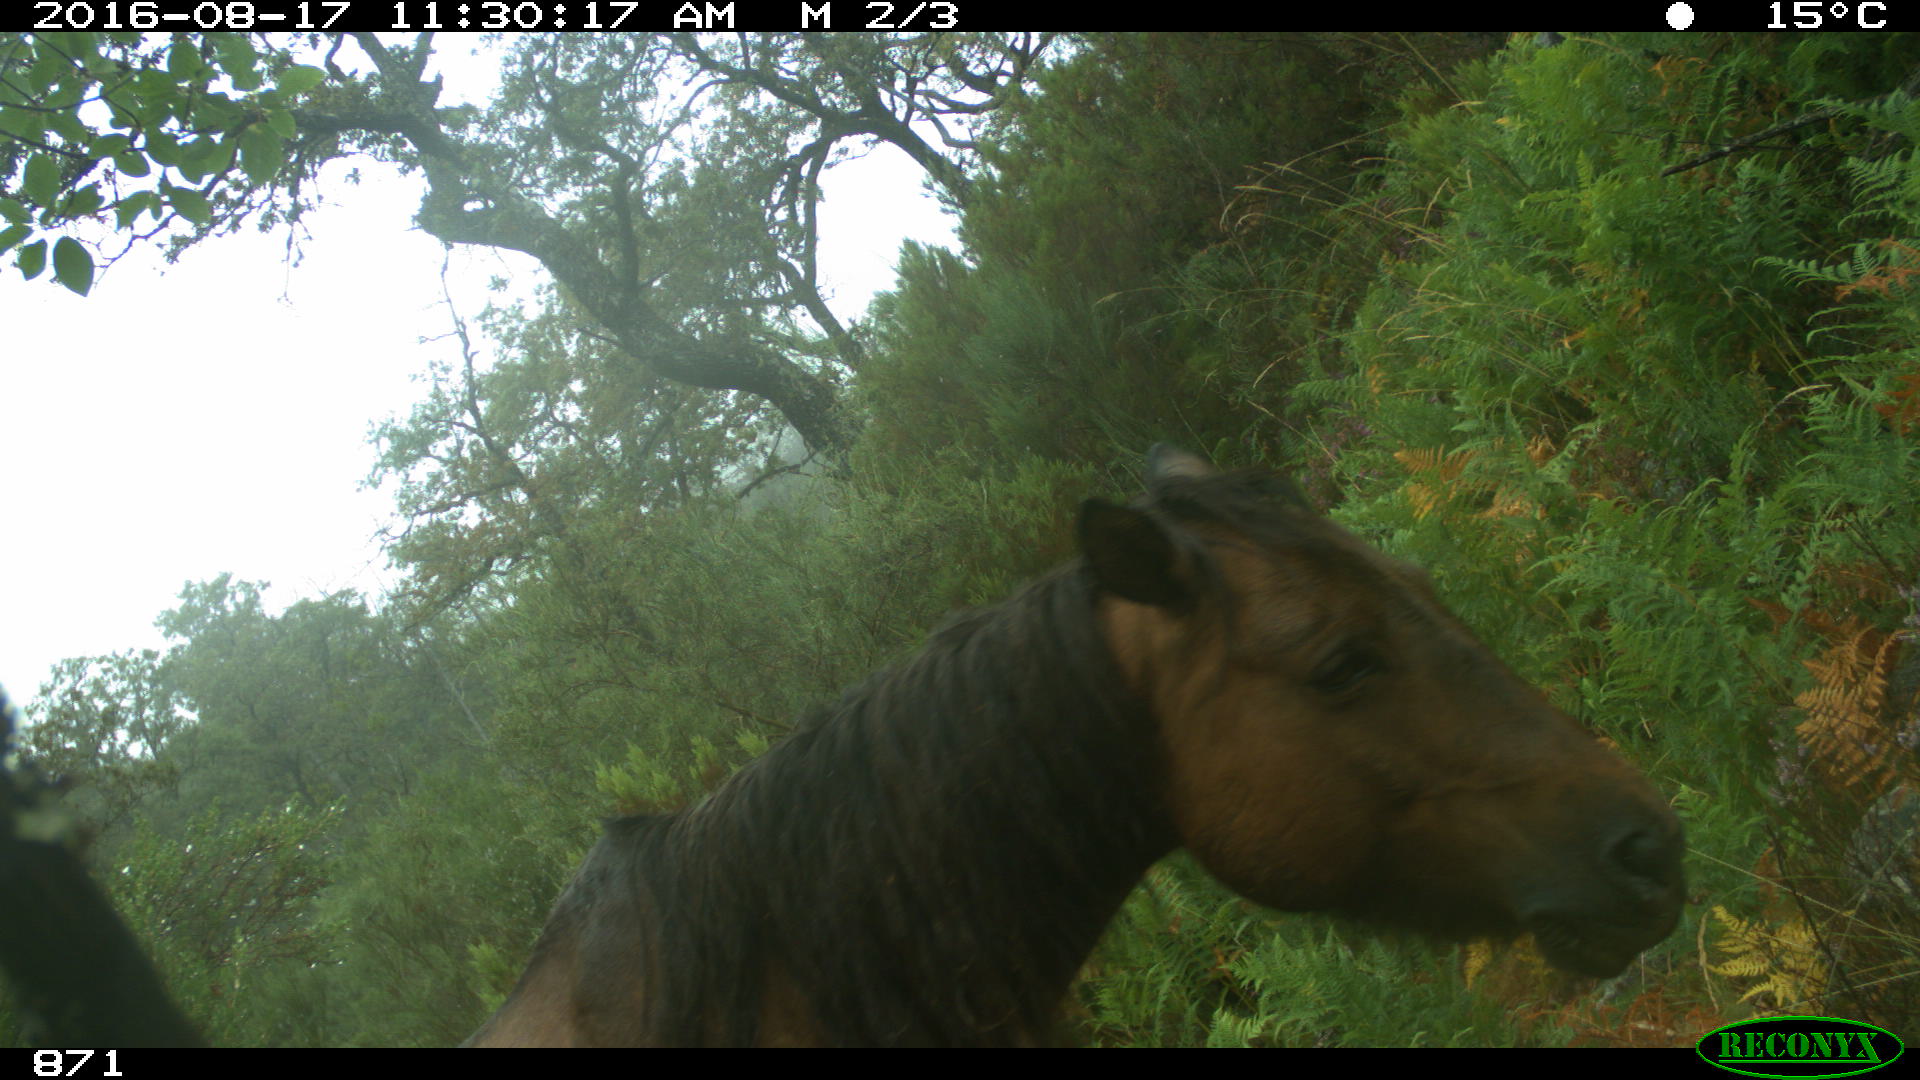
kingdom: Animalia
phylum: Chordata
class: Mammalia
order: Perissodactyla
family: Equidae
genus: Equus
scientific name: Equus caballus
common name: Horse
